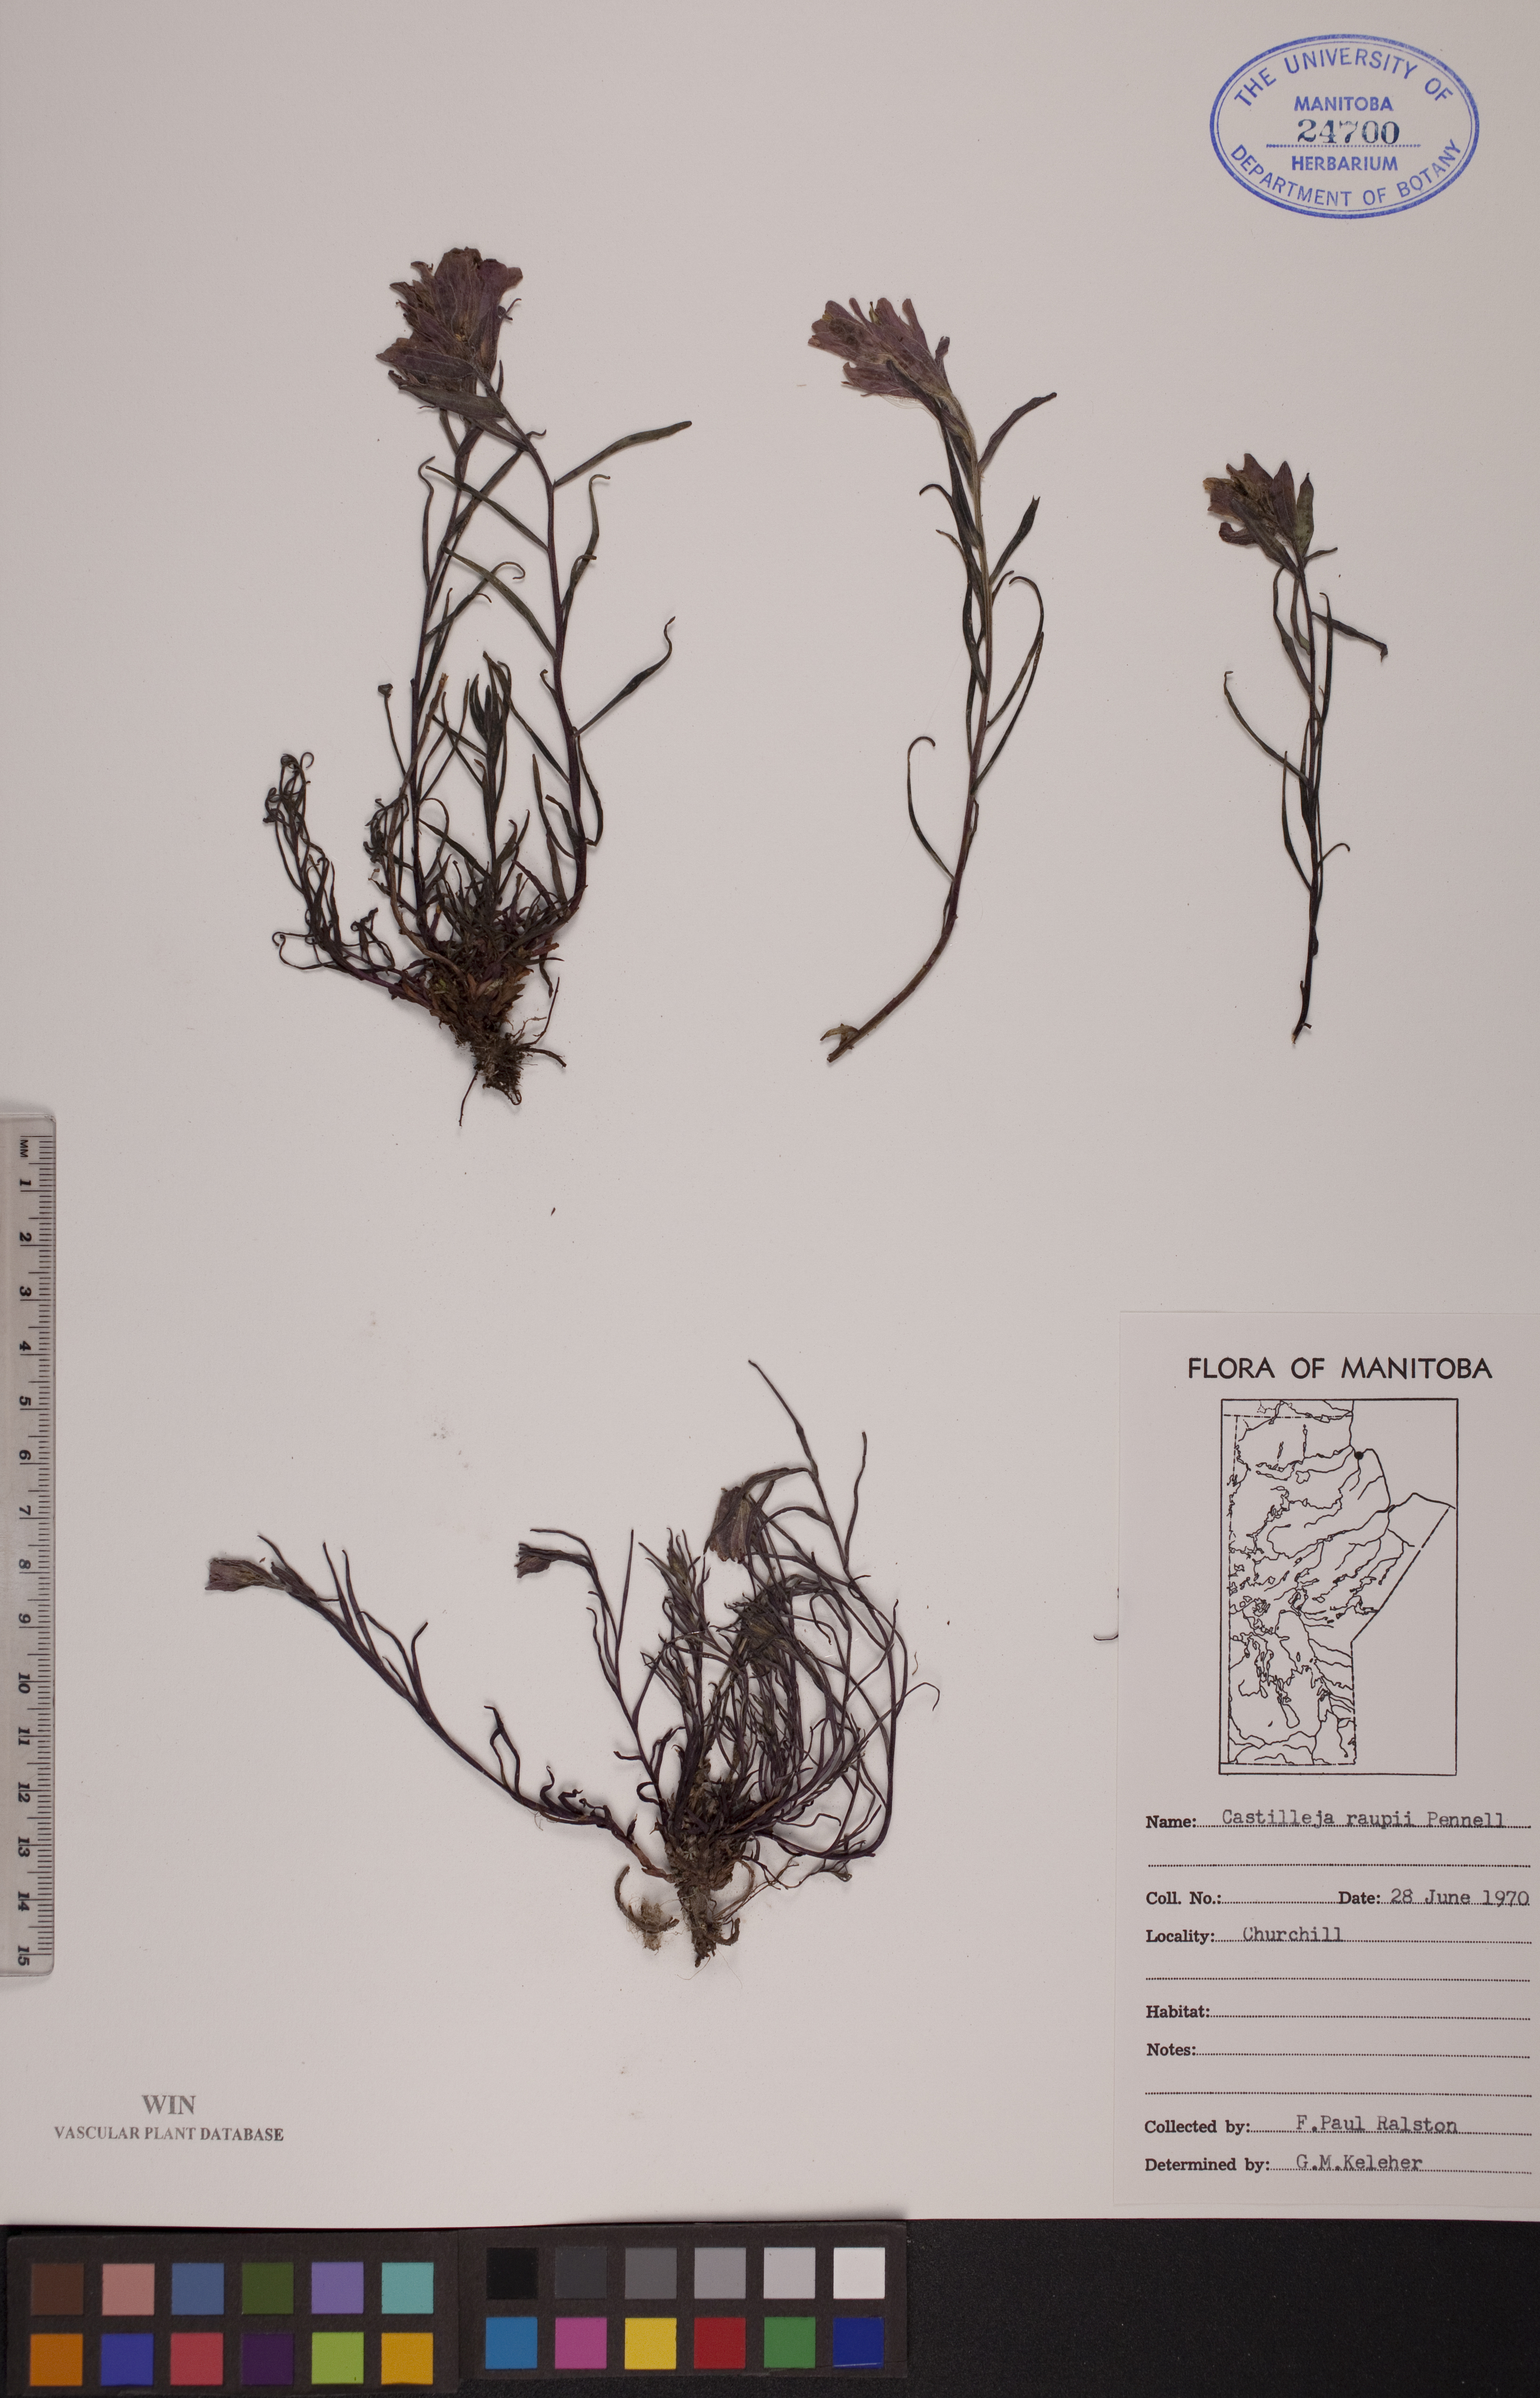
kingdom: Plantae
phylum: Tracheophyta
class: Magnoliopsida
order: Lamiales
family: Orobanchaceae
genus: Castilleja
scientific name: Castilleja raupii
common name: Raup's paintbrush
